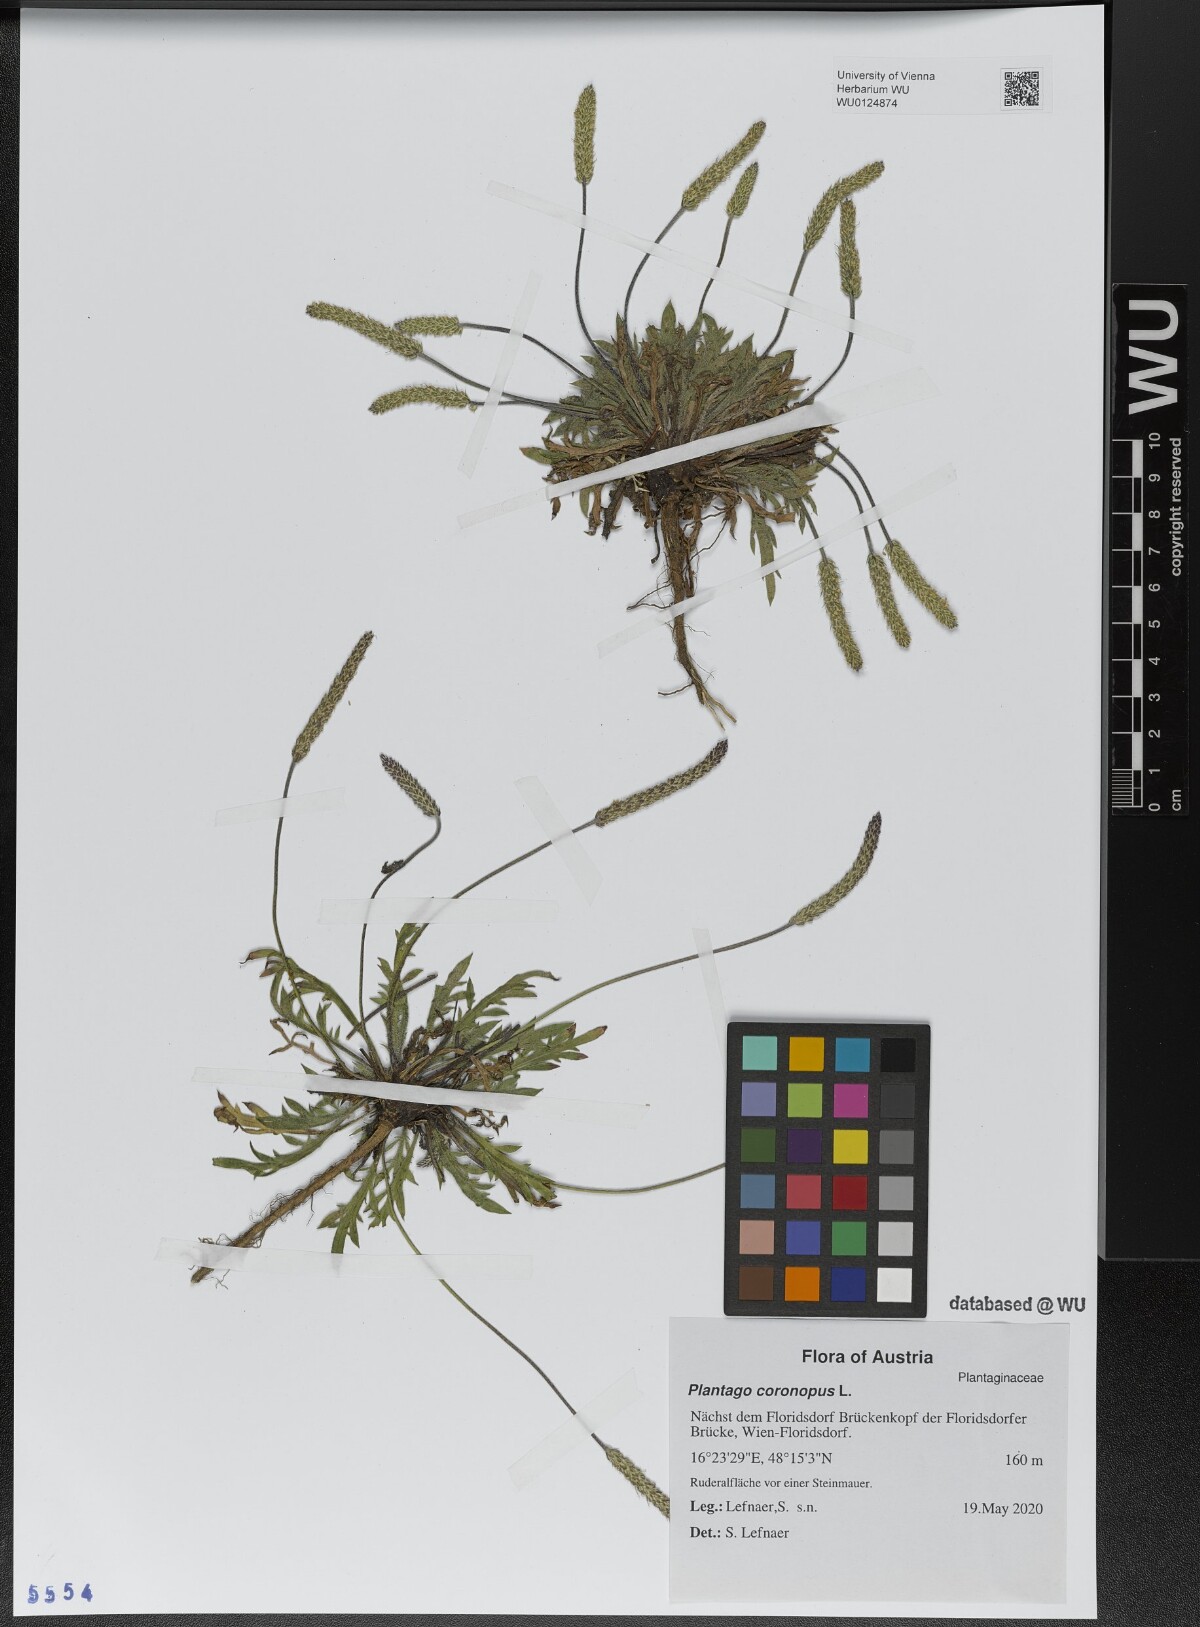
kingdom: Plantae
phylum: Tracheophyta
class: Magnoliopsida
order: Lamiales
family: Plantaginaceae
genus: Plantago
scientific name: Plantago coronopus
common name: Buck's-horn plantain
